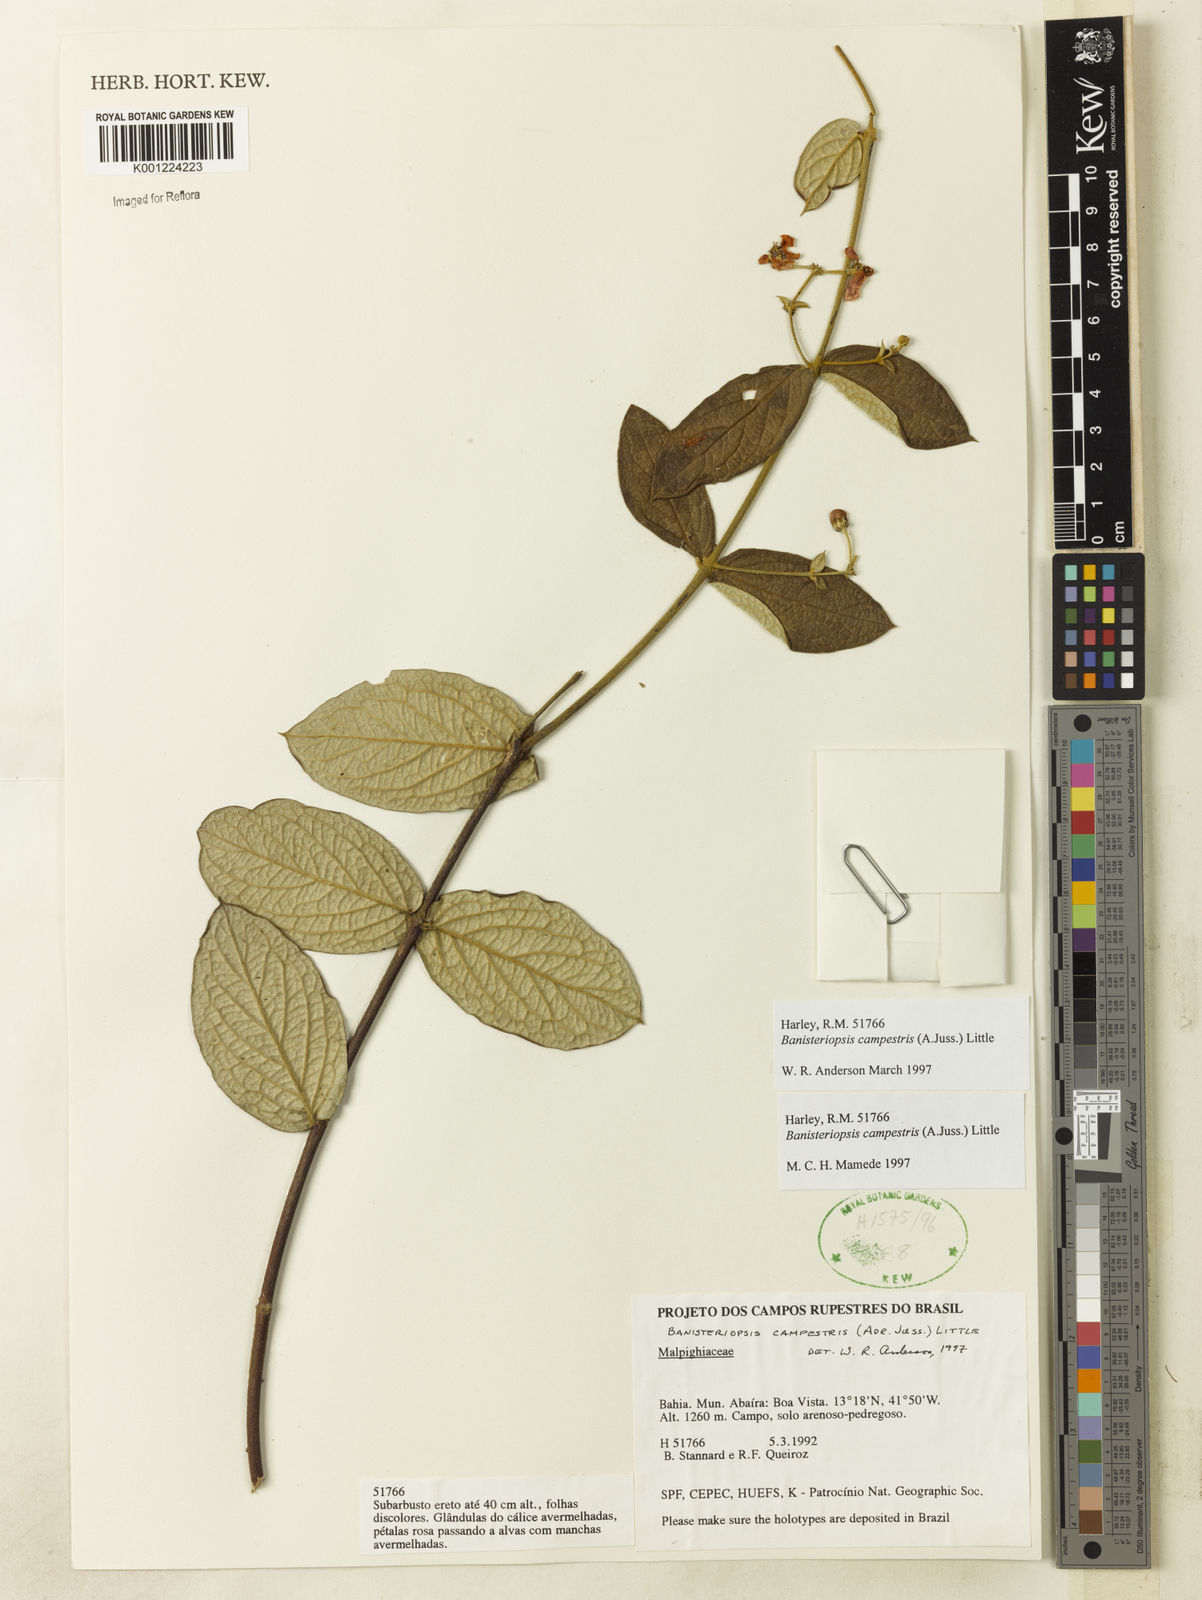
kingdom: Plantae
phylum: Tracheophyta
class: Magnoliopsida
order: Malpighiales
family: Malpighiaceae
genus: Banisteriopsis
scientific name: Banisteriopsis campestris
